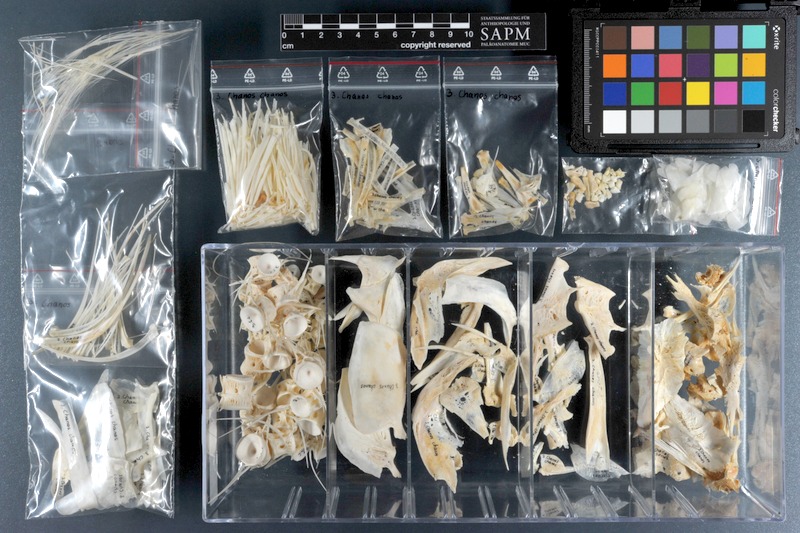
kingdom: Animalia
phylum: Chordata
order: Gonorynchiformes
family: Chanidae
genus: Chanos
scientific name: Chanos chanos
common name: Milkfish
